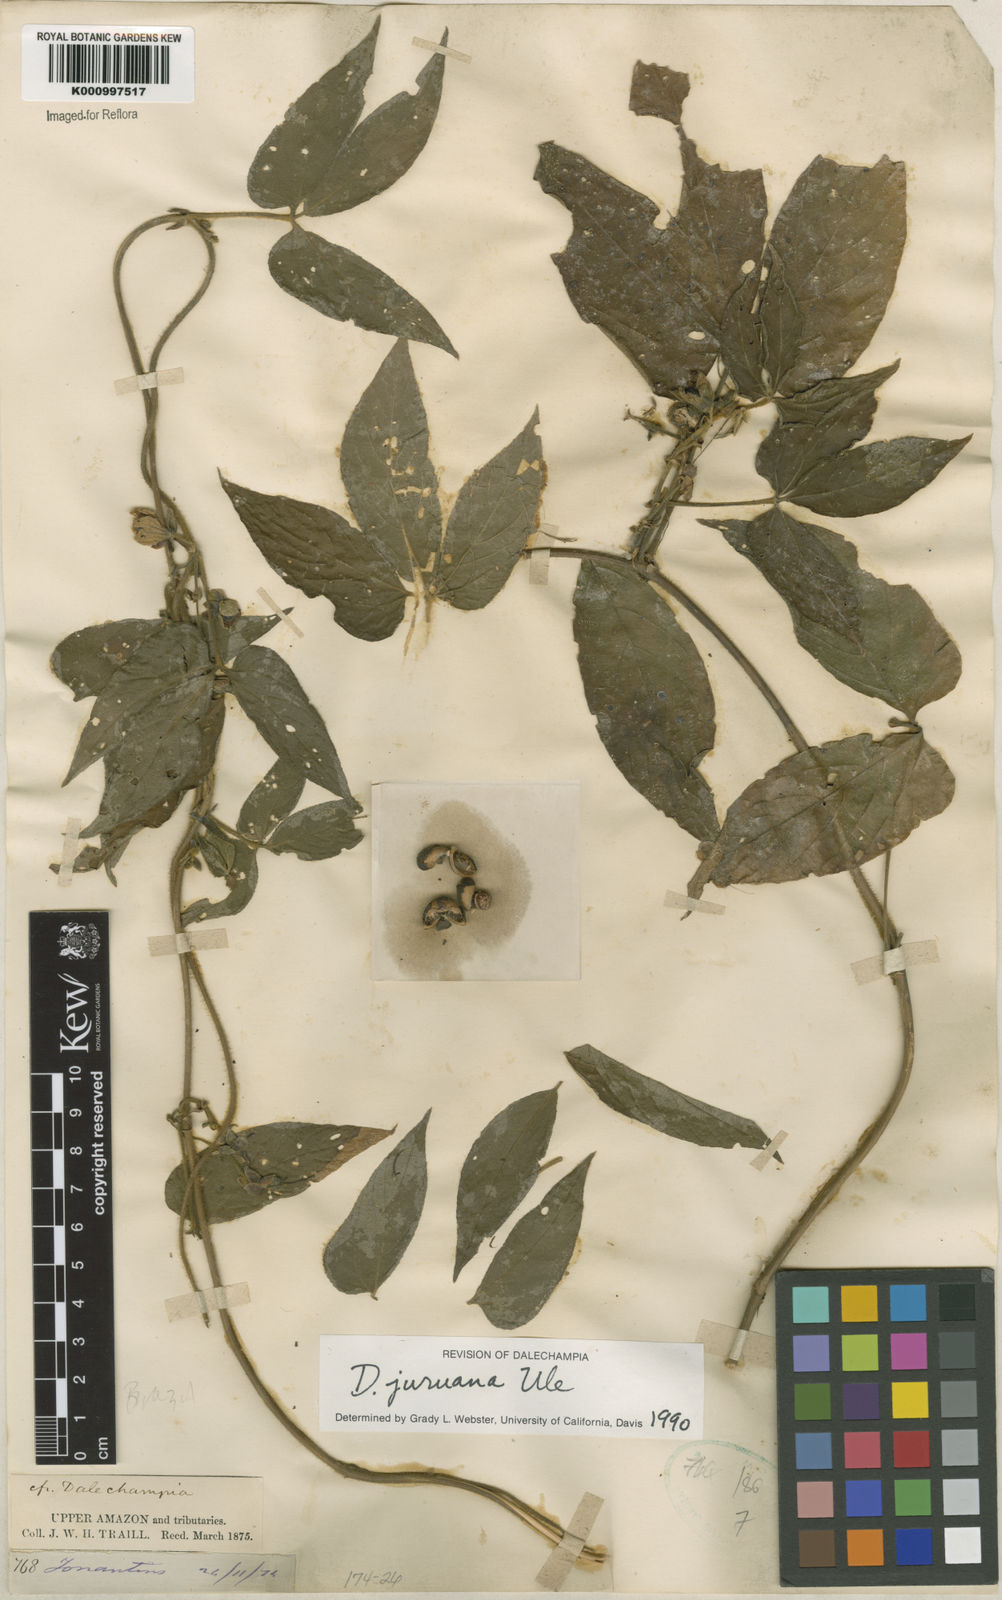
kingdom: Plantae
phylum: Tracheophyta
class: Magnoliopsida
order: Malpighiales
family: Euphorbiaceae
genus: Dalechampia
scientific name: Dalechampia juruana
